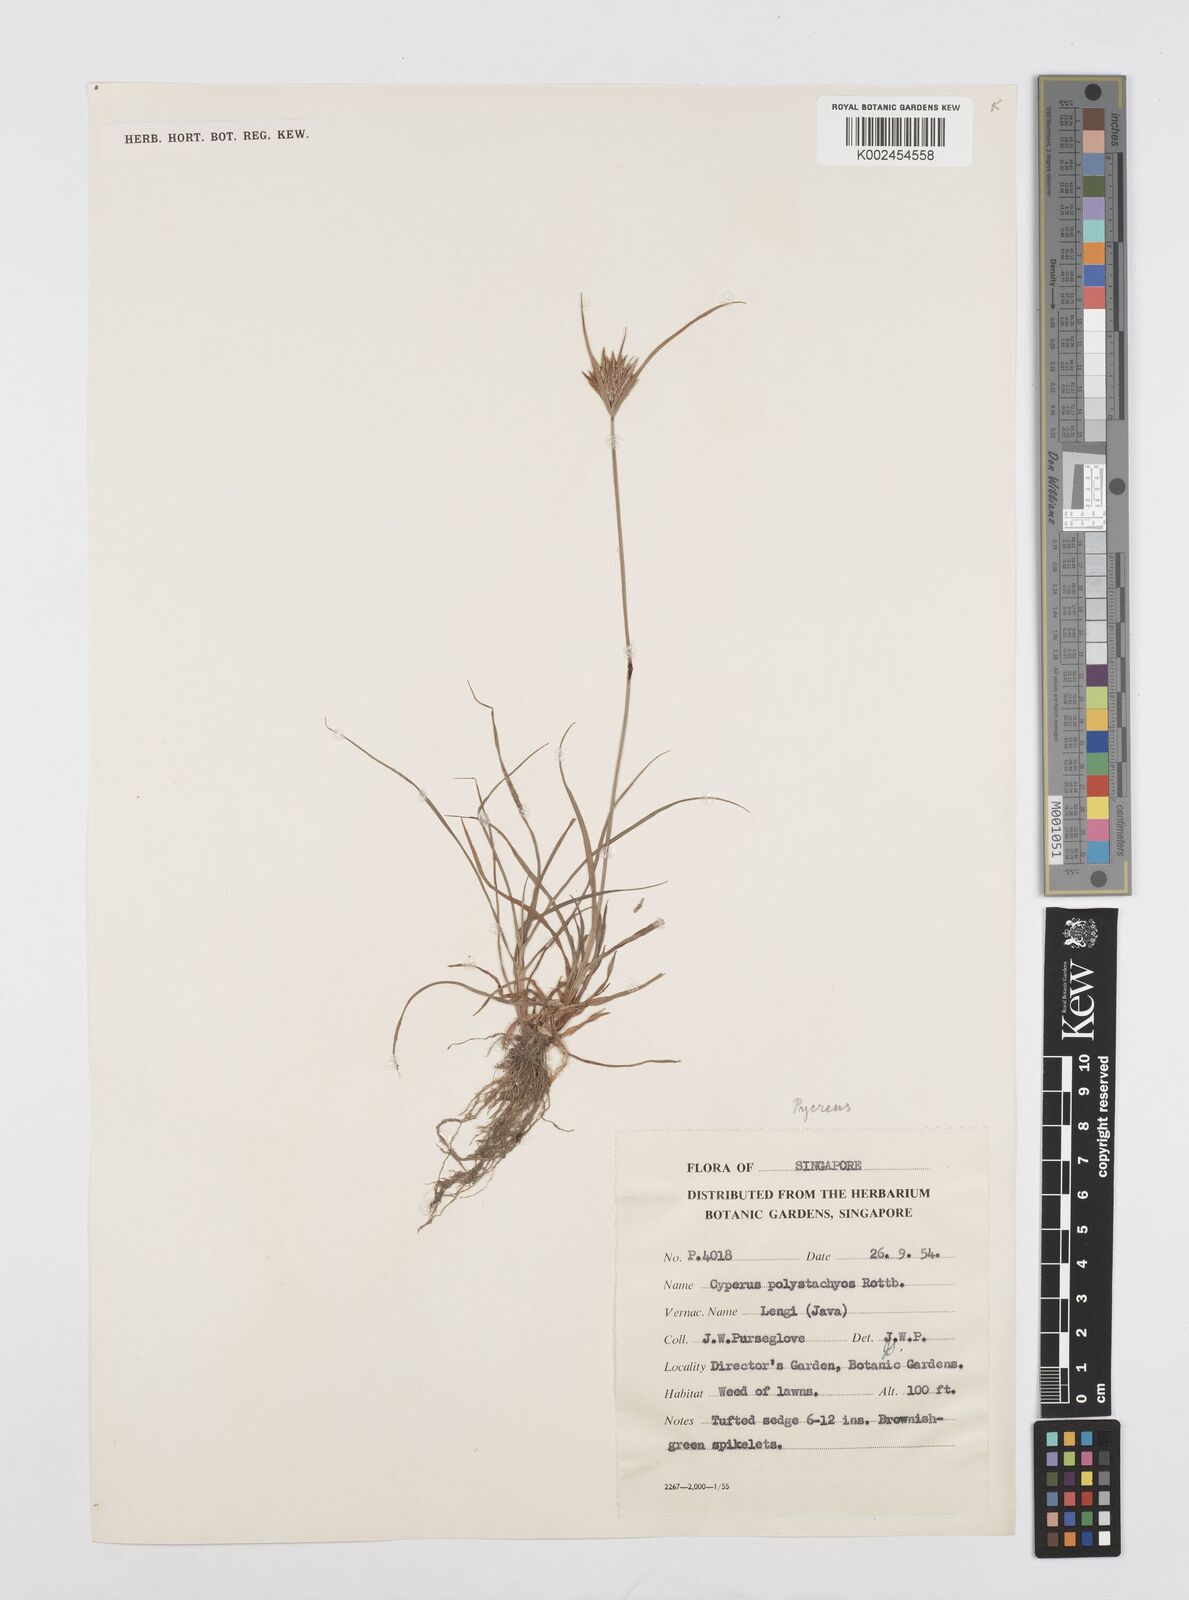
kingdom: Plantae
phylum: Tracheophyta
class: Liliopsida
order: Poales
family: Cyperaceae
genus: Cyperus
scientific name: Cyperus polystachyos
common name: Bunchy flat sedge
